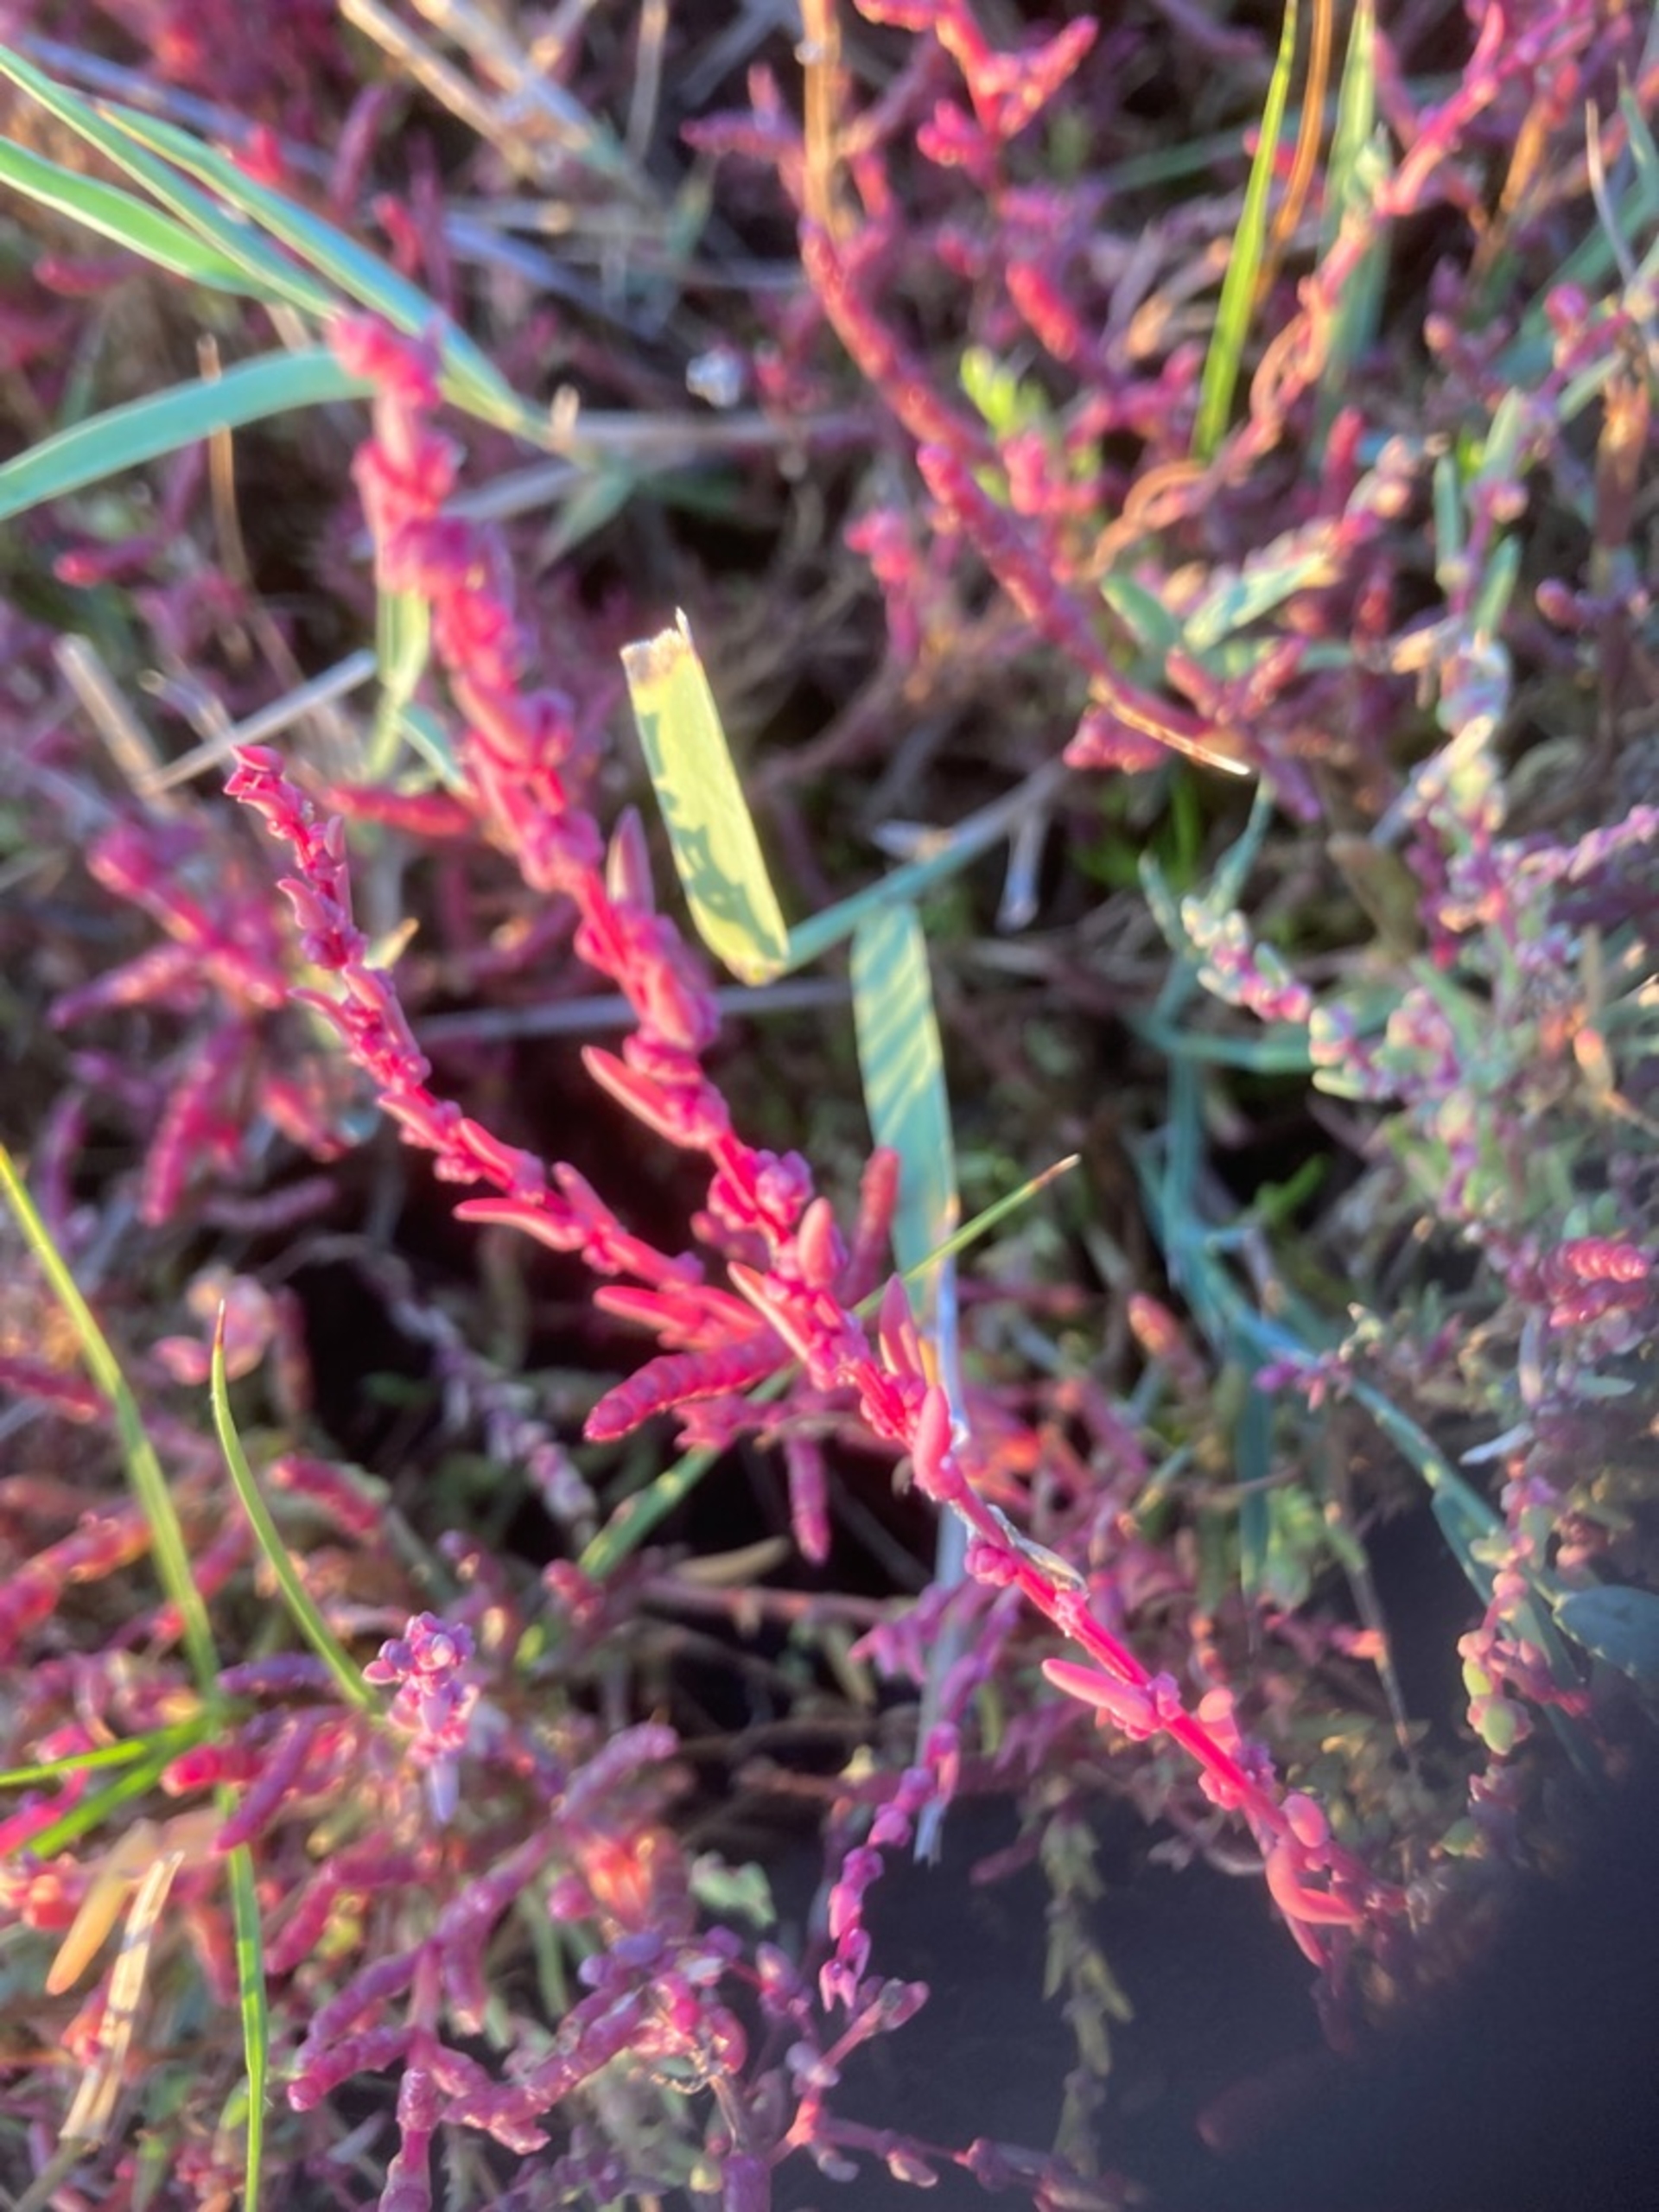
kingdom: Plantae
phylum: Tracheophyta
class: Magnoliopsida
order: Caryophyllales
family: Amaranthaceae
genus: Suaeda
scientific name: Suaeda maritima
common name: Strandgåsefod
